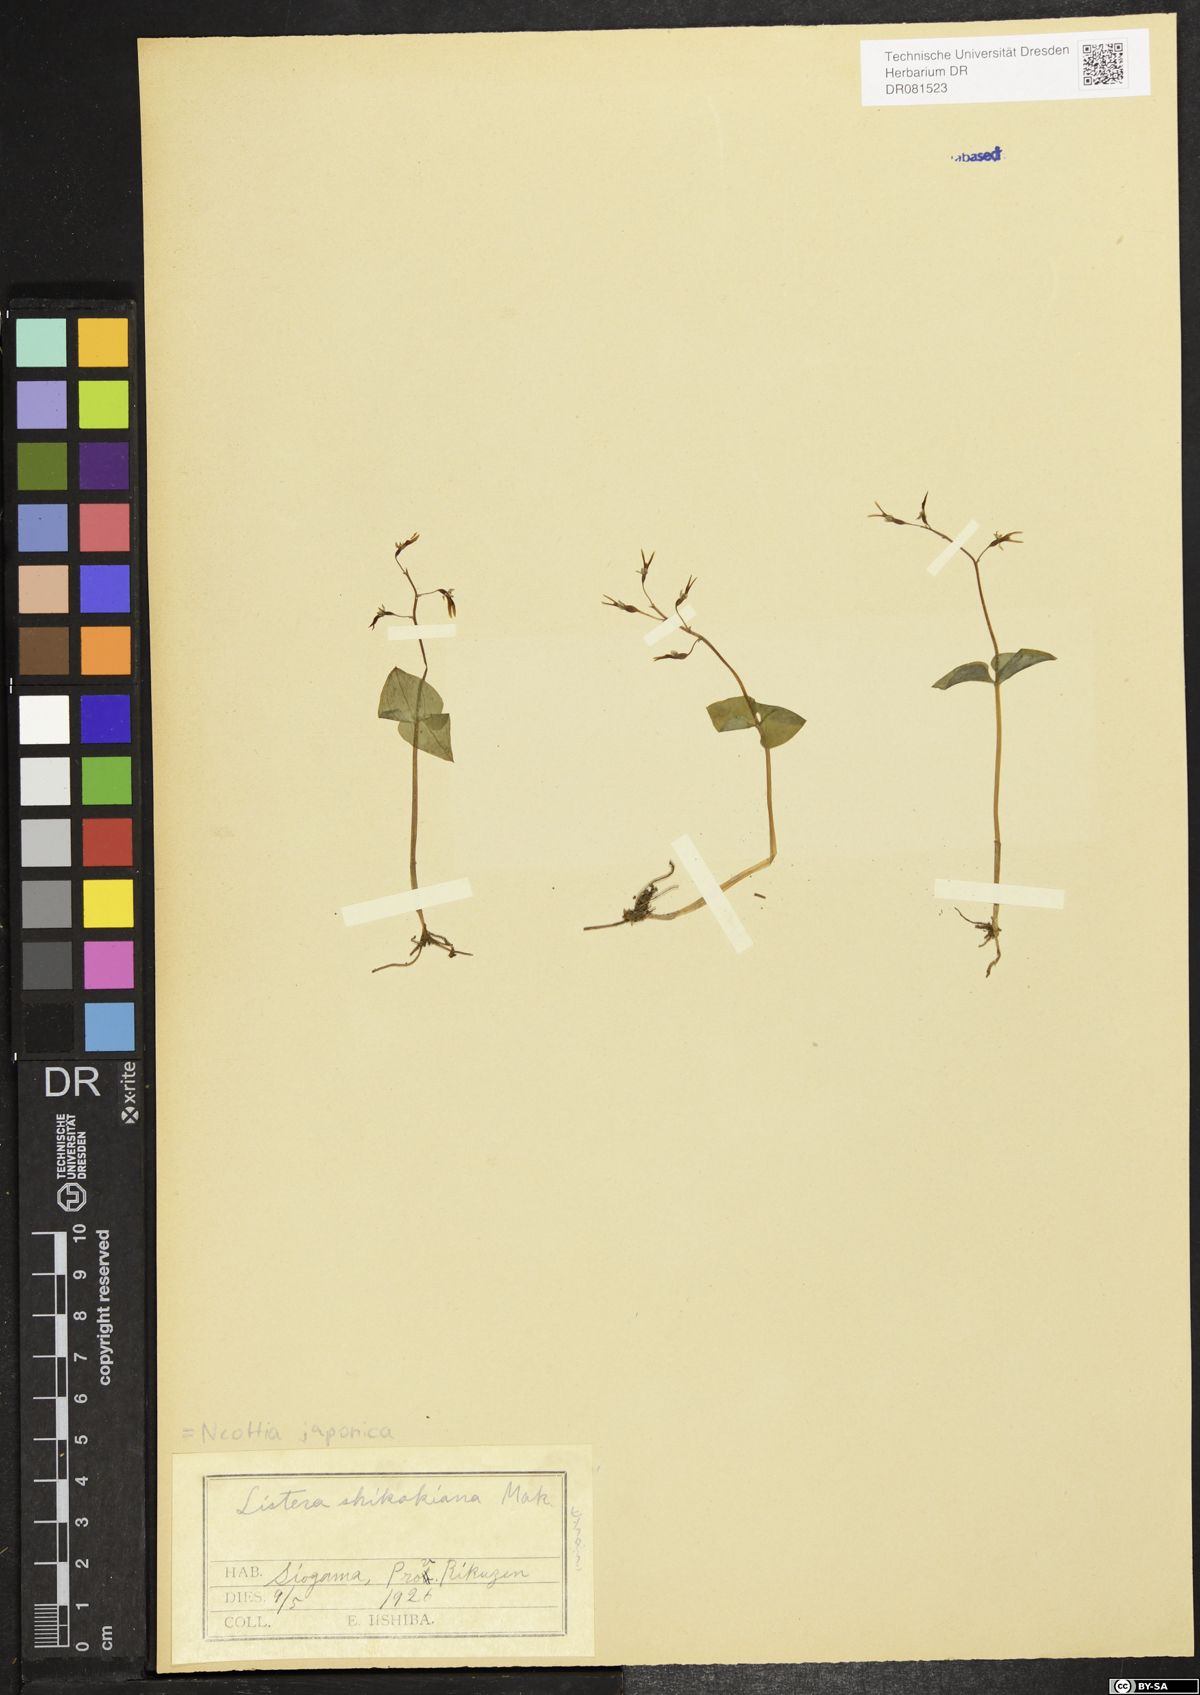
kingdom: Plantae
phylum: Tracheophyta
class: Liliopsida
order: Asparagales
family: Orchidaceae
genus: Neottia
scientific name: Neottia japonica
